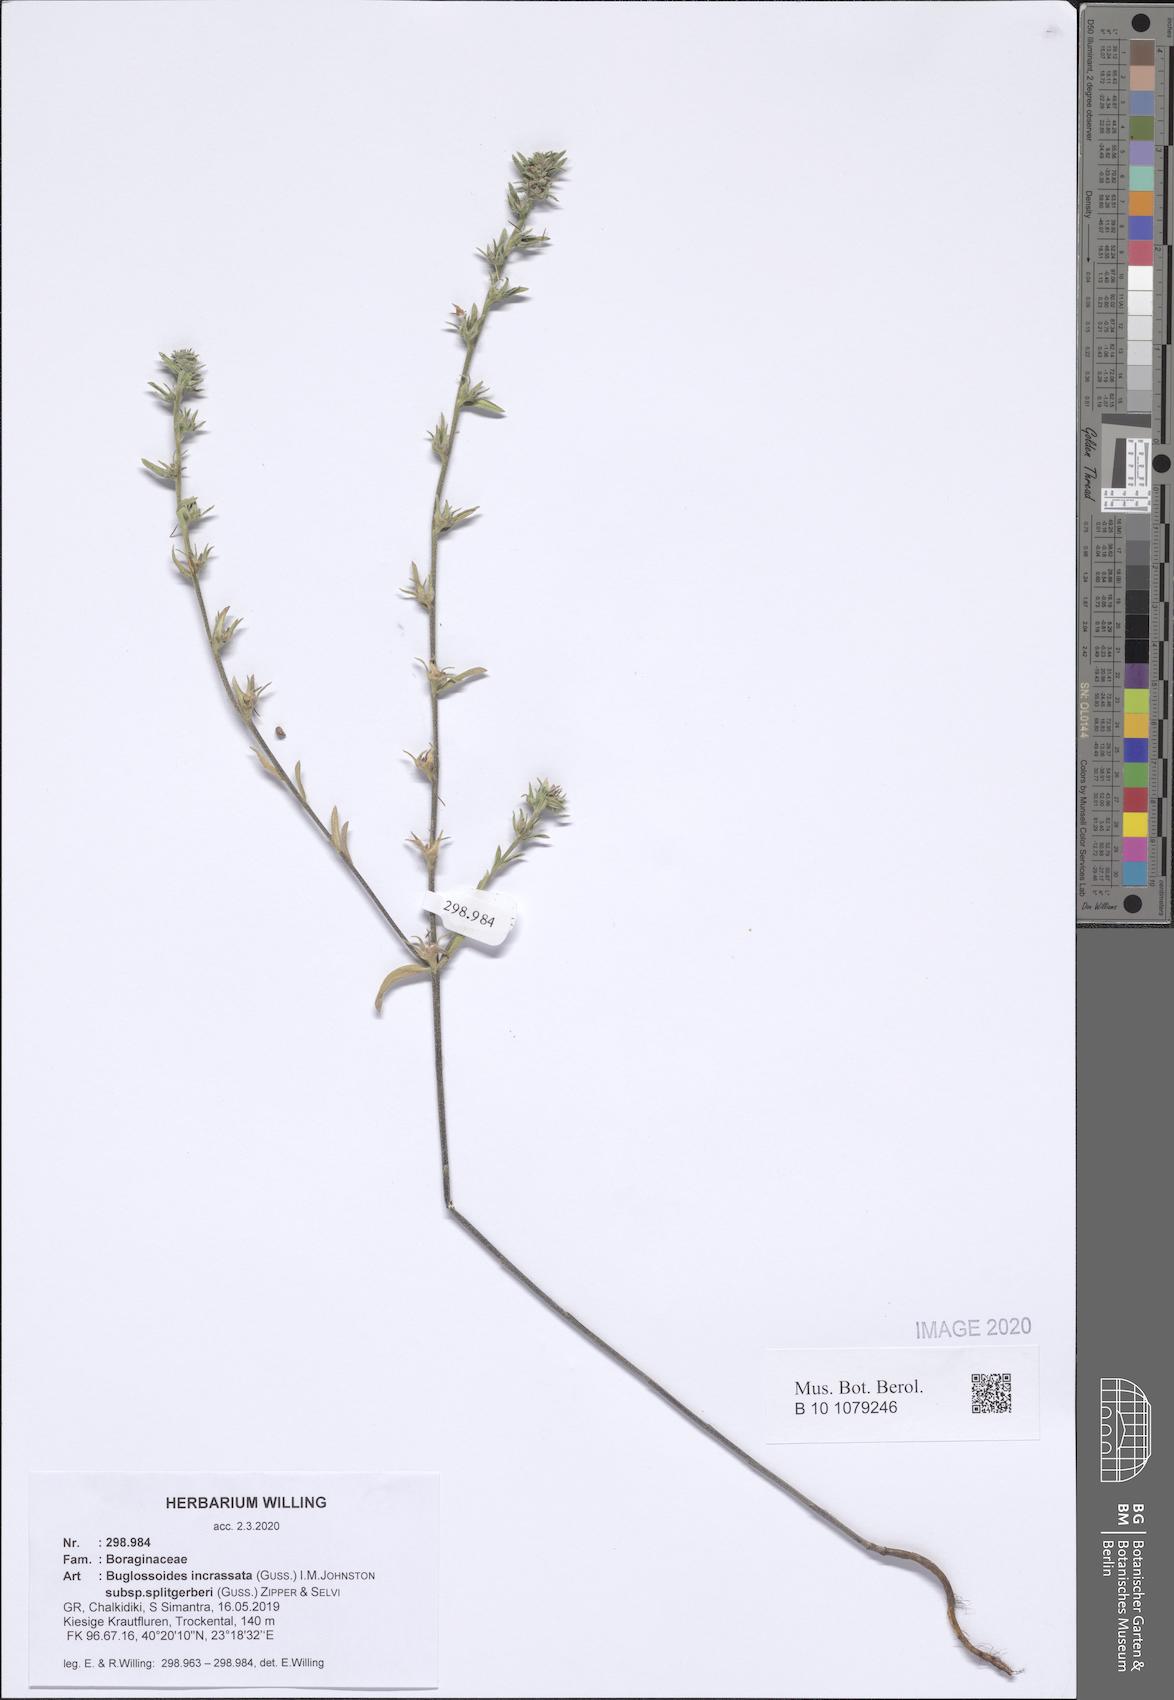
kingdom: Plantae
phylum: Tracheophyta
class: Magnoliopsida
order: Boraginales
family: Boraginaceae
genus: Buglossoides
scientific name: Buglossoides incrassata
